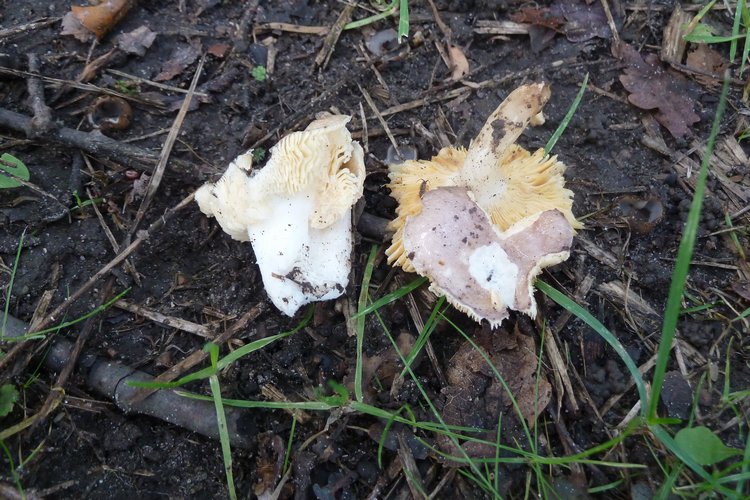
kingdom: Fungi
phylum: Basidiomycota
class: Agaricomycetes
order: Russulales
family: Russulaceae
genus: Russula
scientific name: Russula odorata
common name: duft-skørhat
